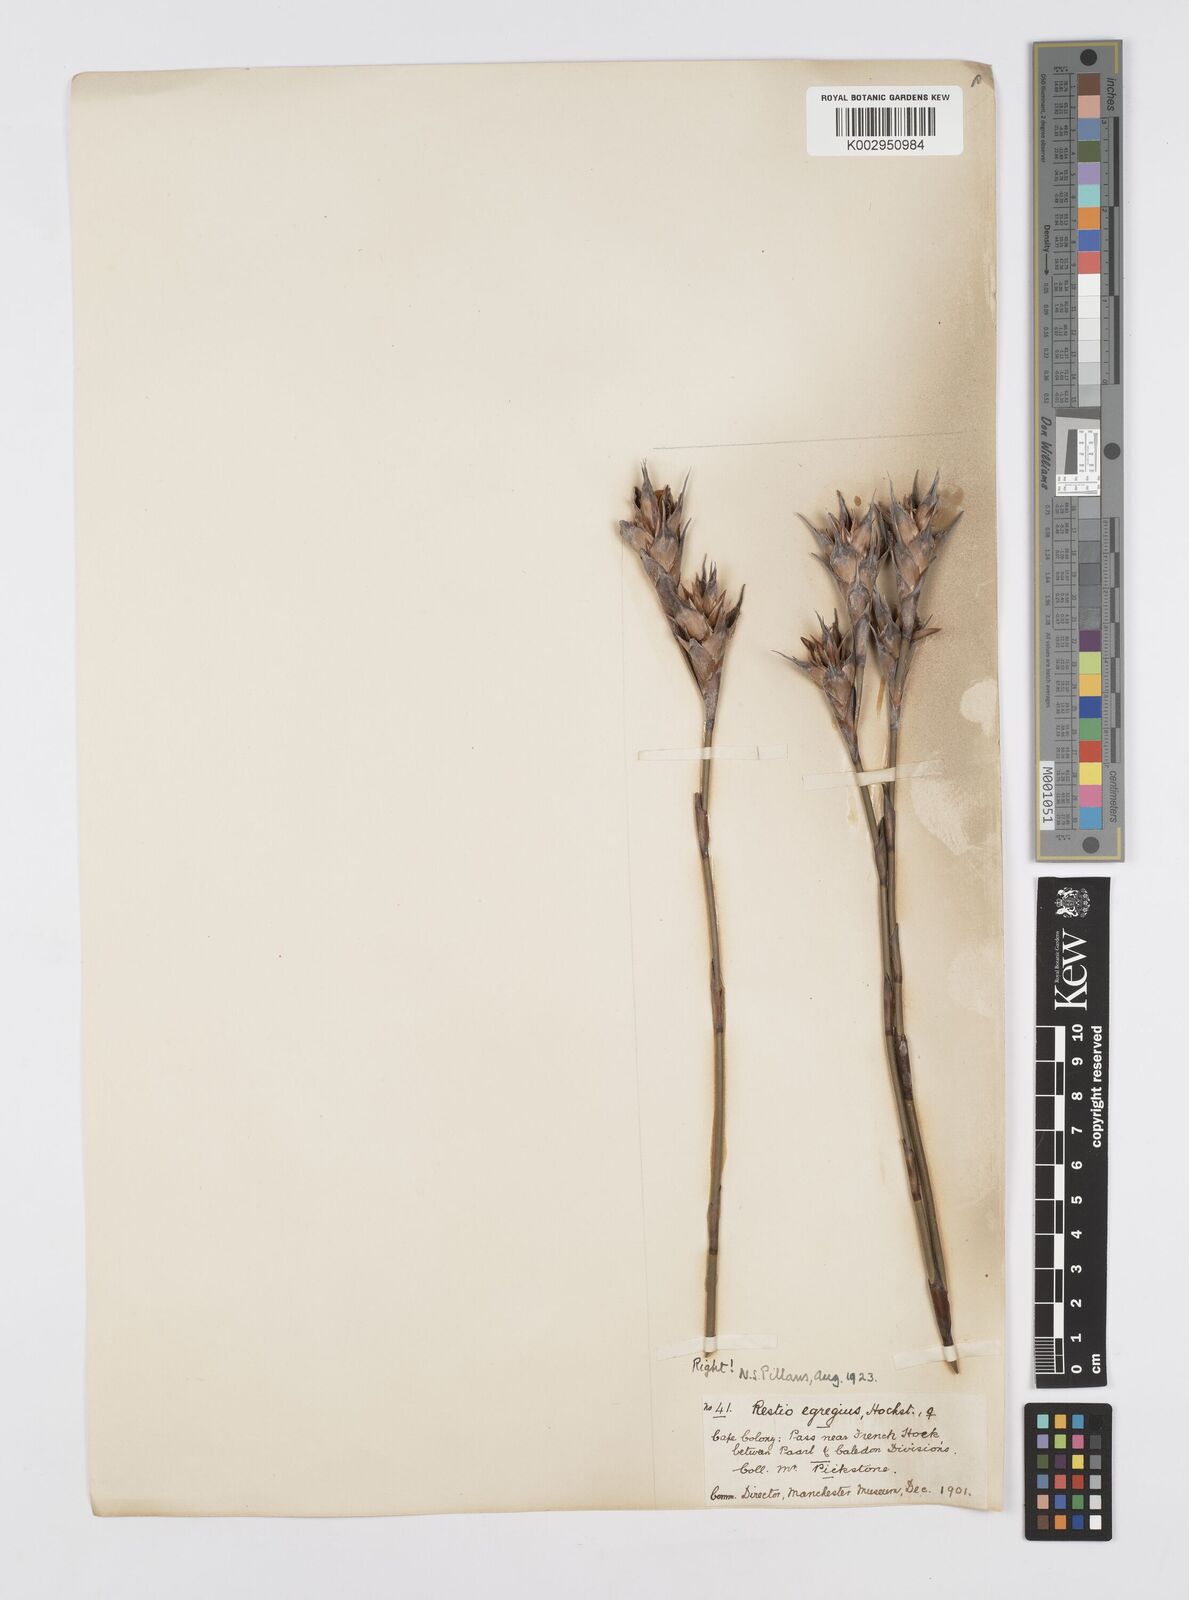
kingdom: Plantae
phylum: Tracheophyta
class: Liliopsida
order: Poales
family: Restionaceae
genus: Restio
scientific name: Restio egregius
